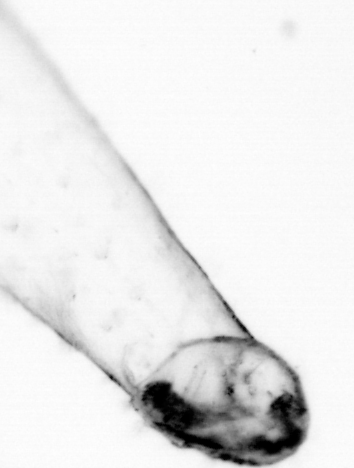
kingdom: Animalia
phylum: Chaetognatha
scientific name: Chaetognatha
